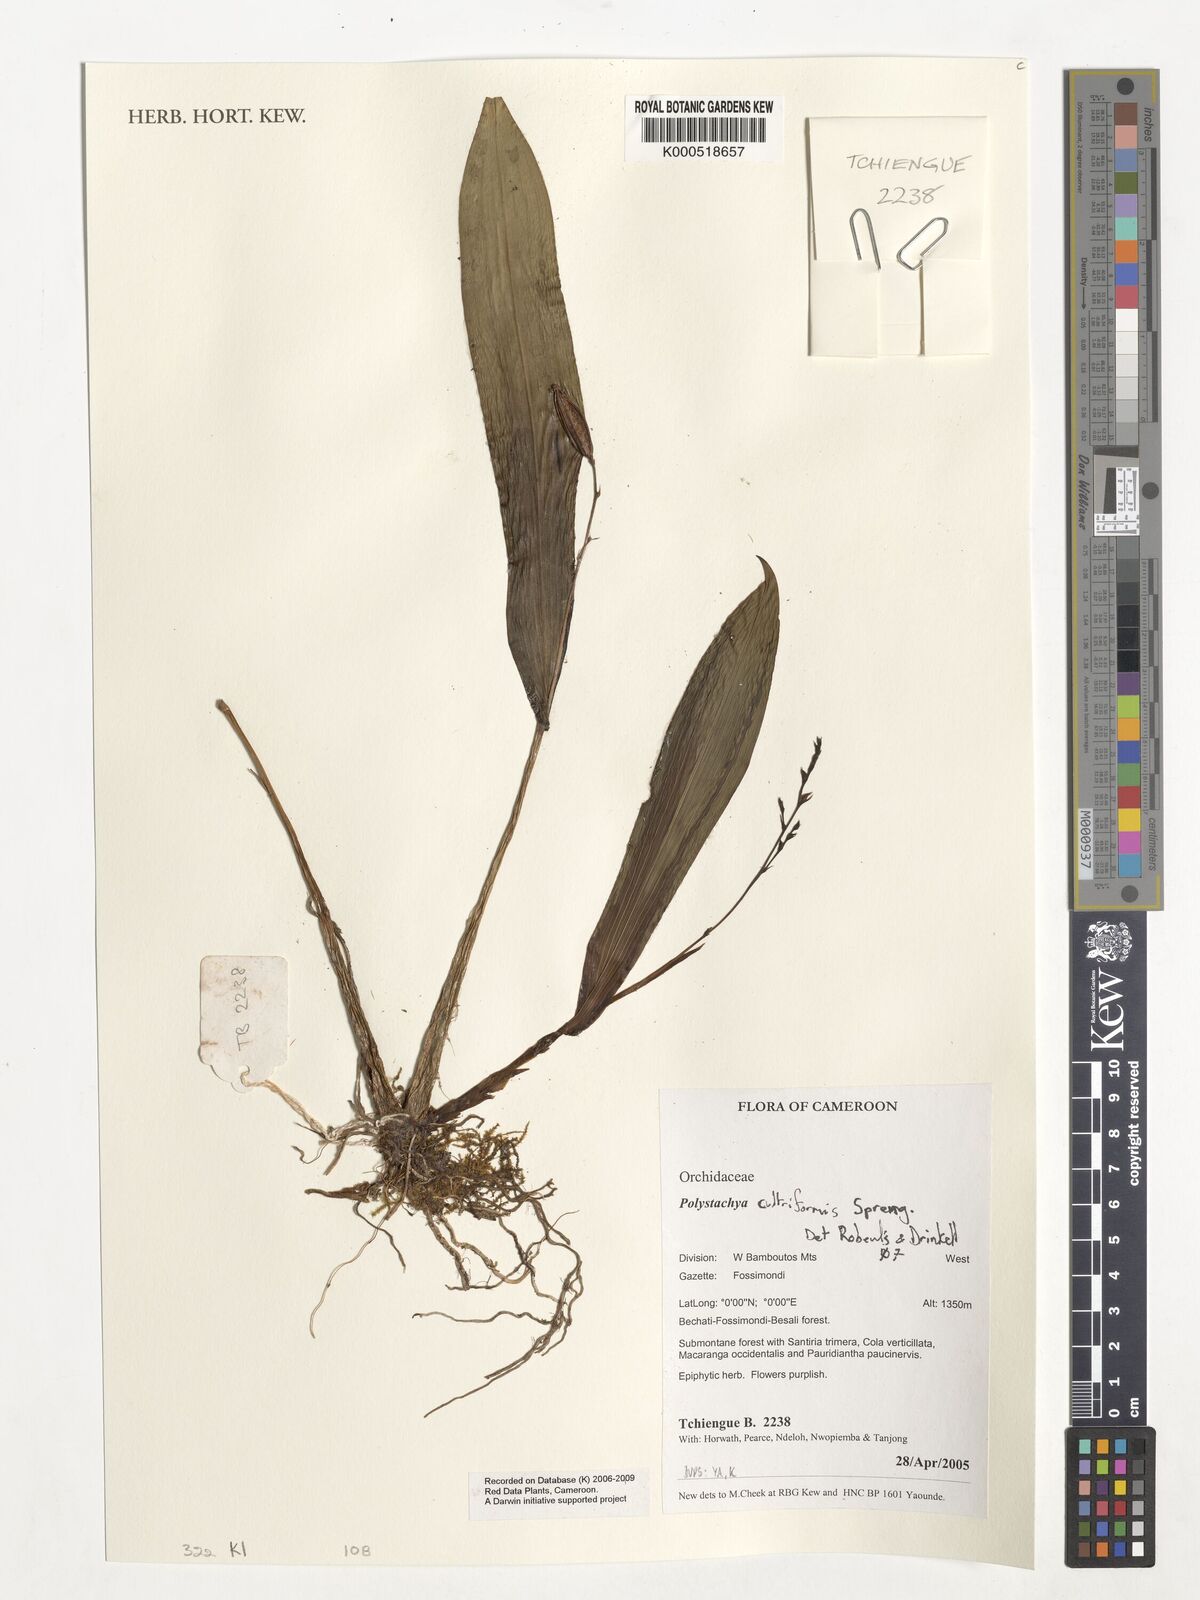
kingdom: Plantae
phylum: Tracheophyta
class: Liliopsida
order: Asparagales
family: Orchidaceae
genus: Polystachya
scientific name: Polystachya cultriformis
